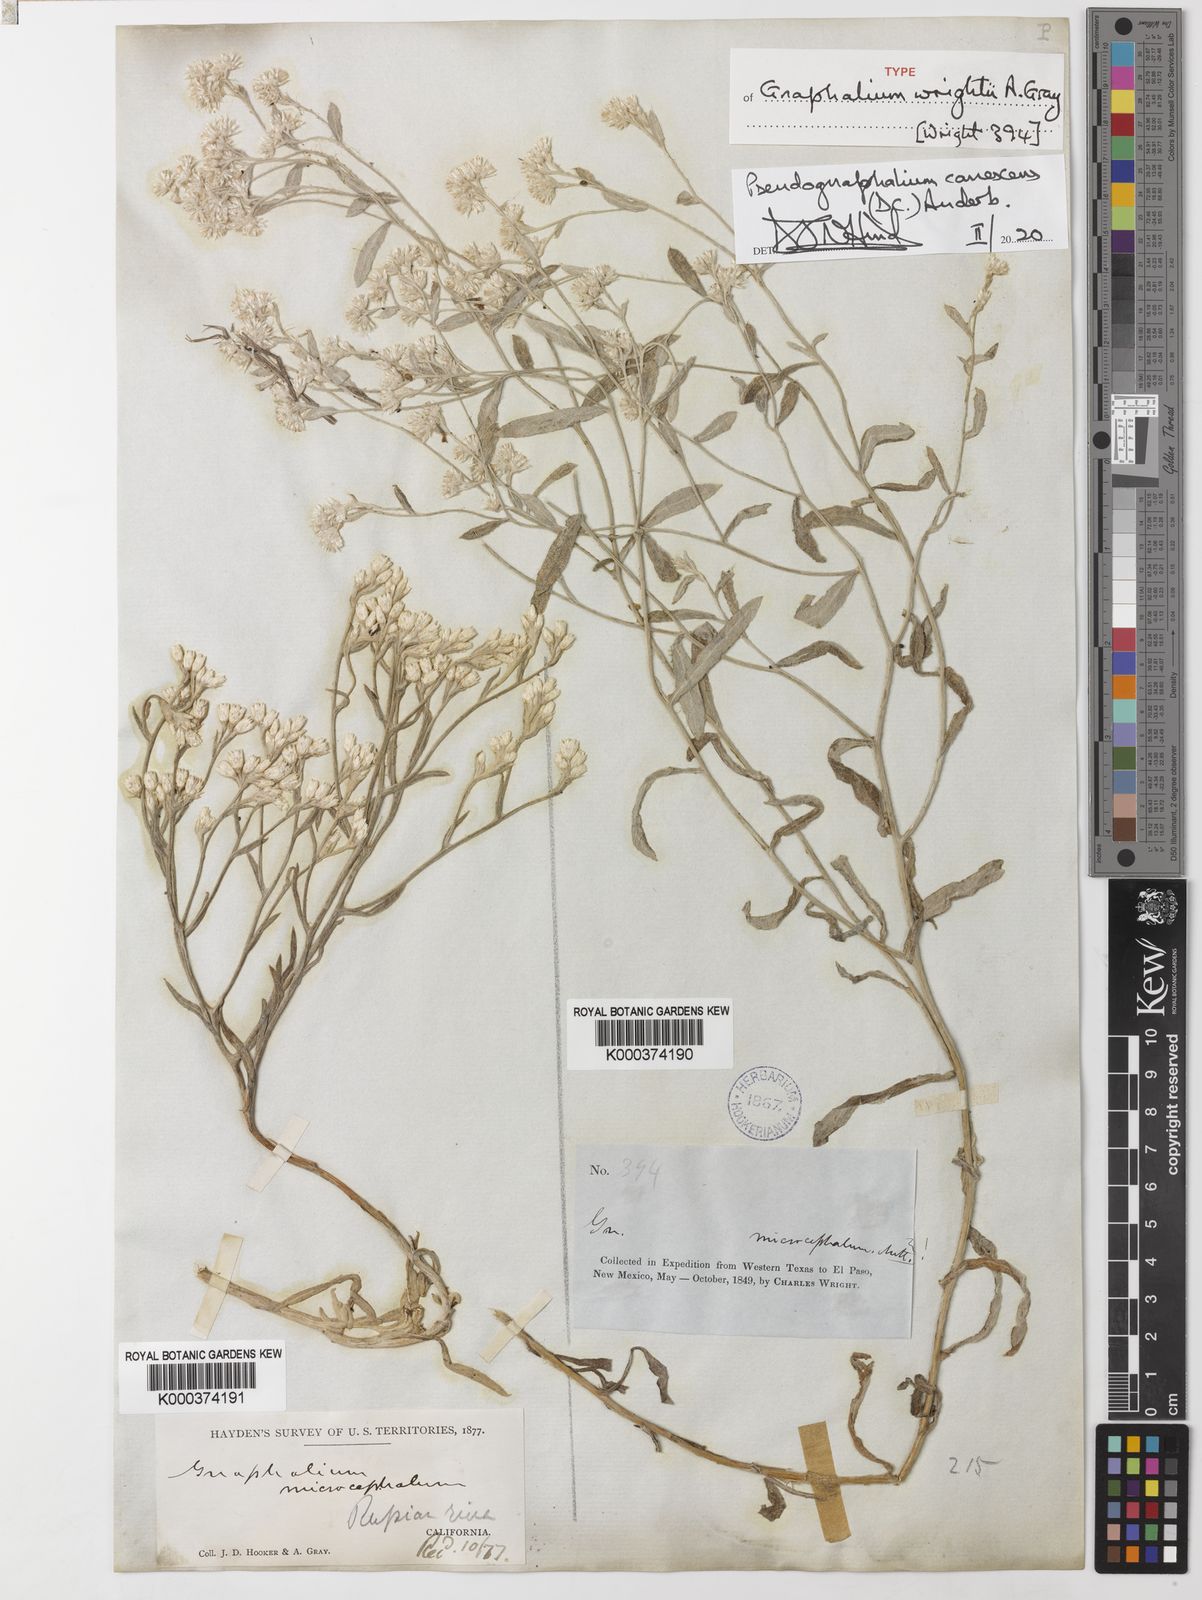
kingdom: Plantae
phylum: Tracheophyta
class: Magnoliopsida
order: Asterales
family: Asteraceae
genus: Pseudognaphalium
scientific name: Pseudognaphalium canescens
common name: Wright's rabbit-tobacco
